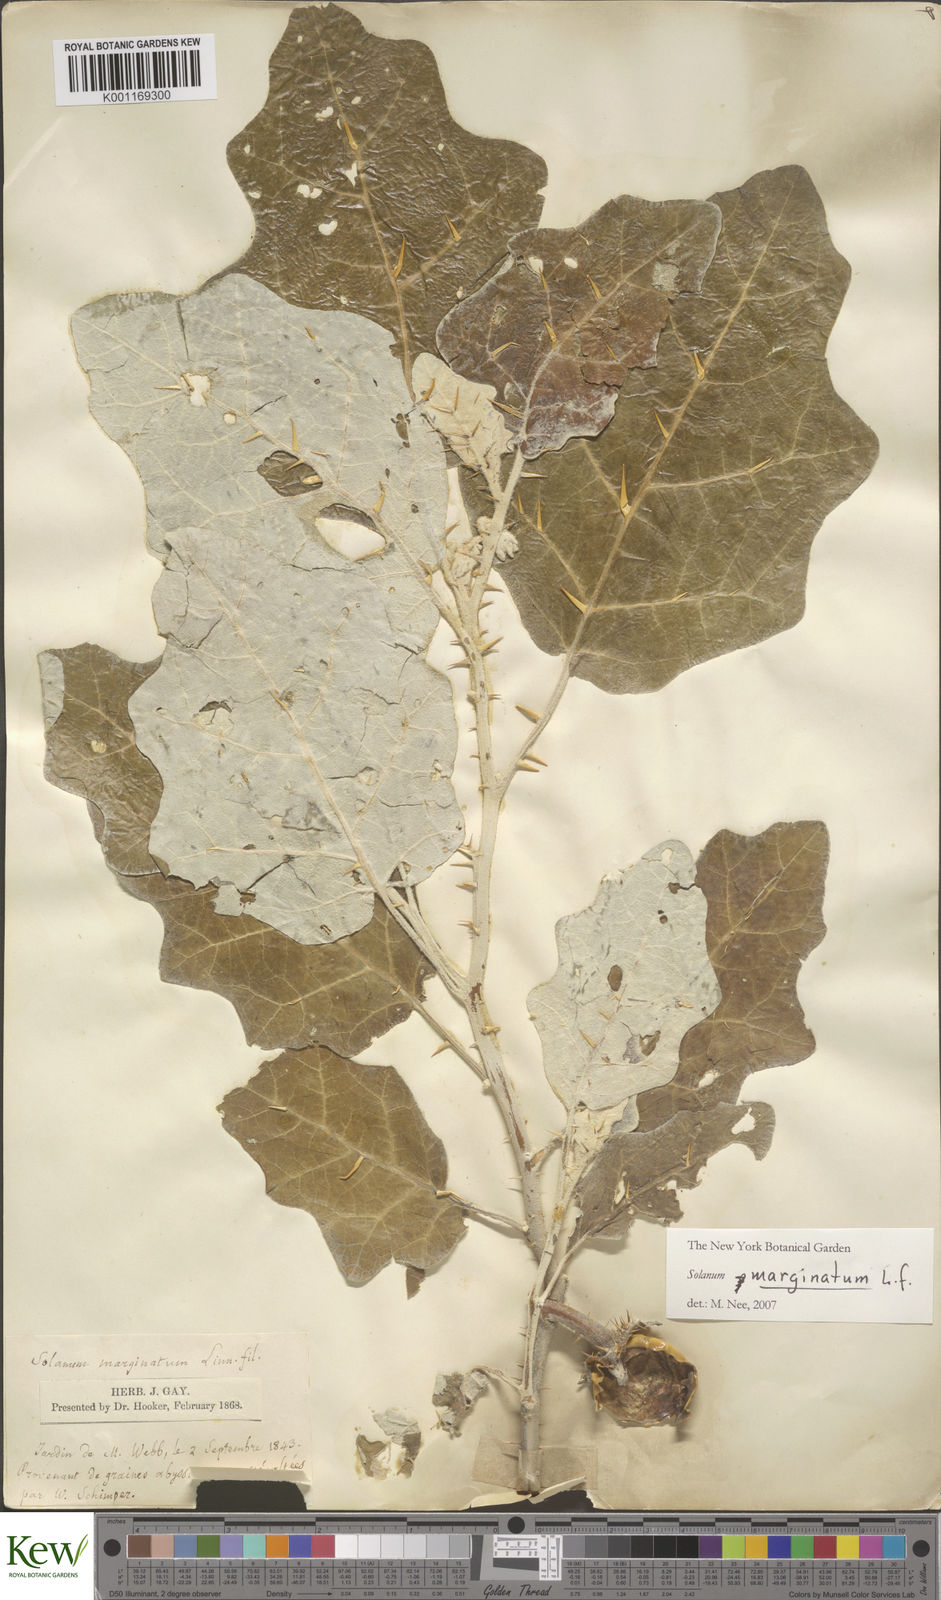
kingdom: Plantae
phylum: Tracheophyta
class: Magnoliopsida
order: Solanales
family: Solanaceae
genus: Solanum
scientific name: Solanum marginatum
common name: Purple african nightshade
